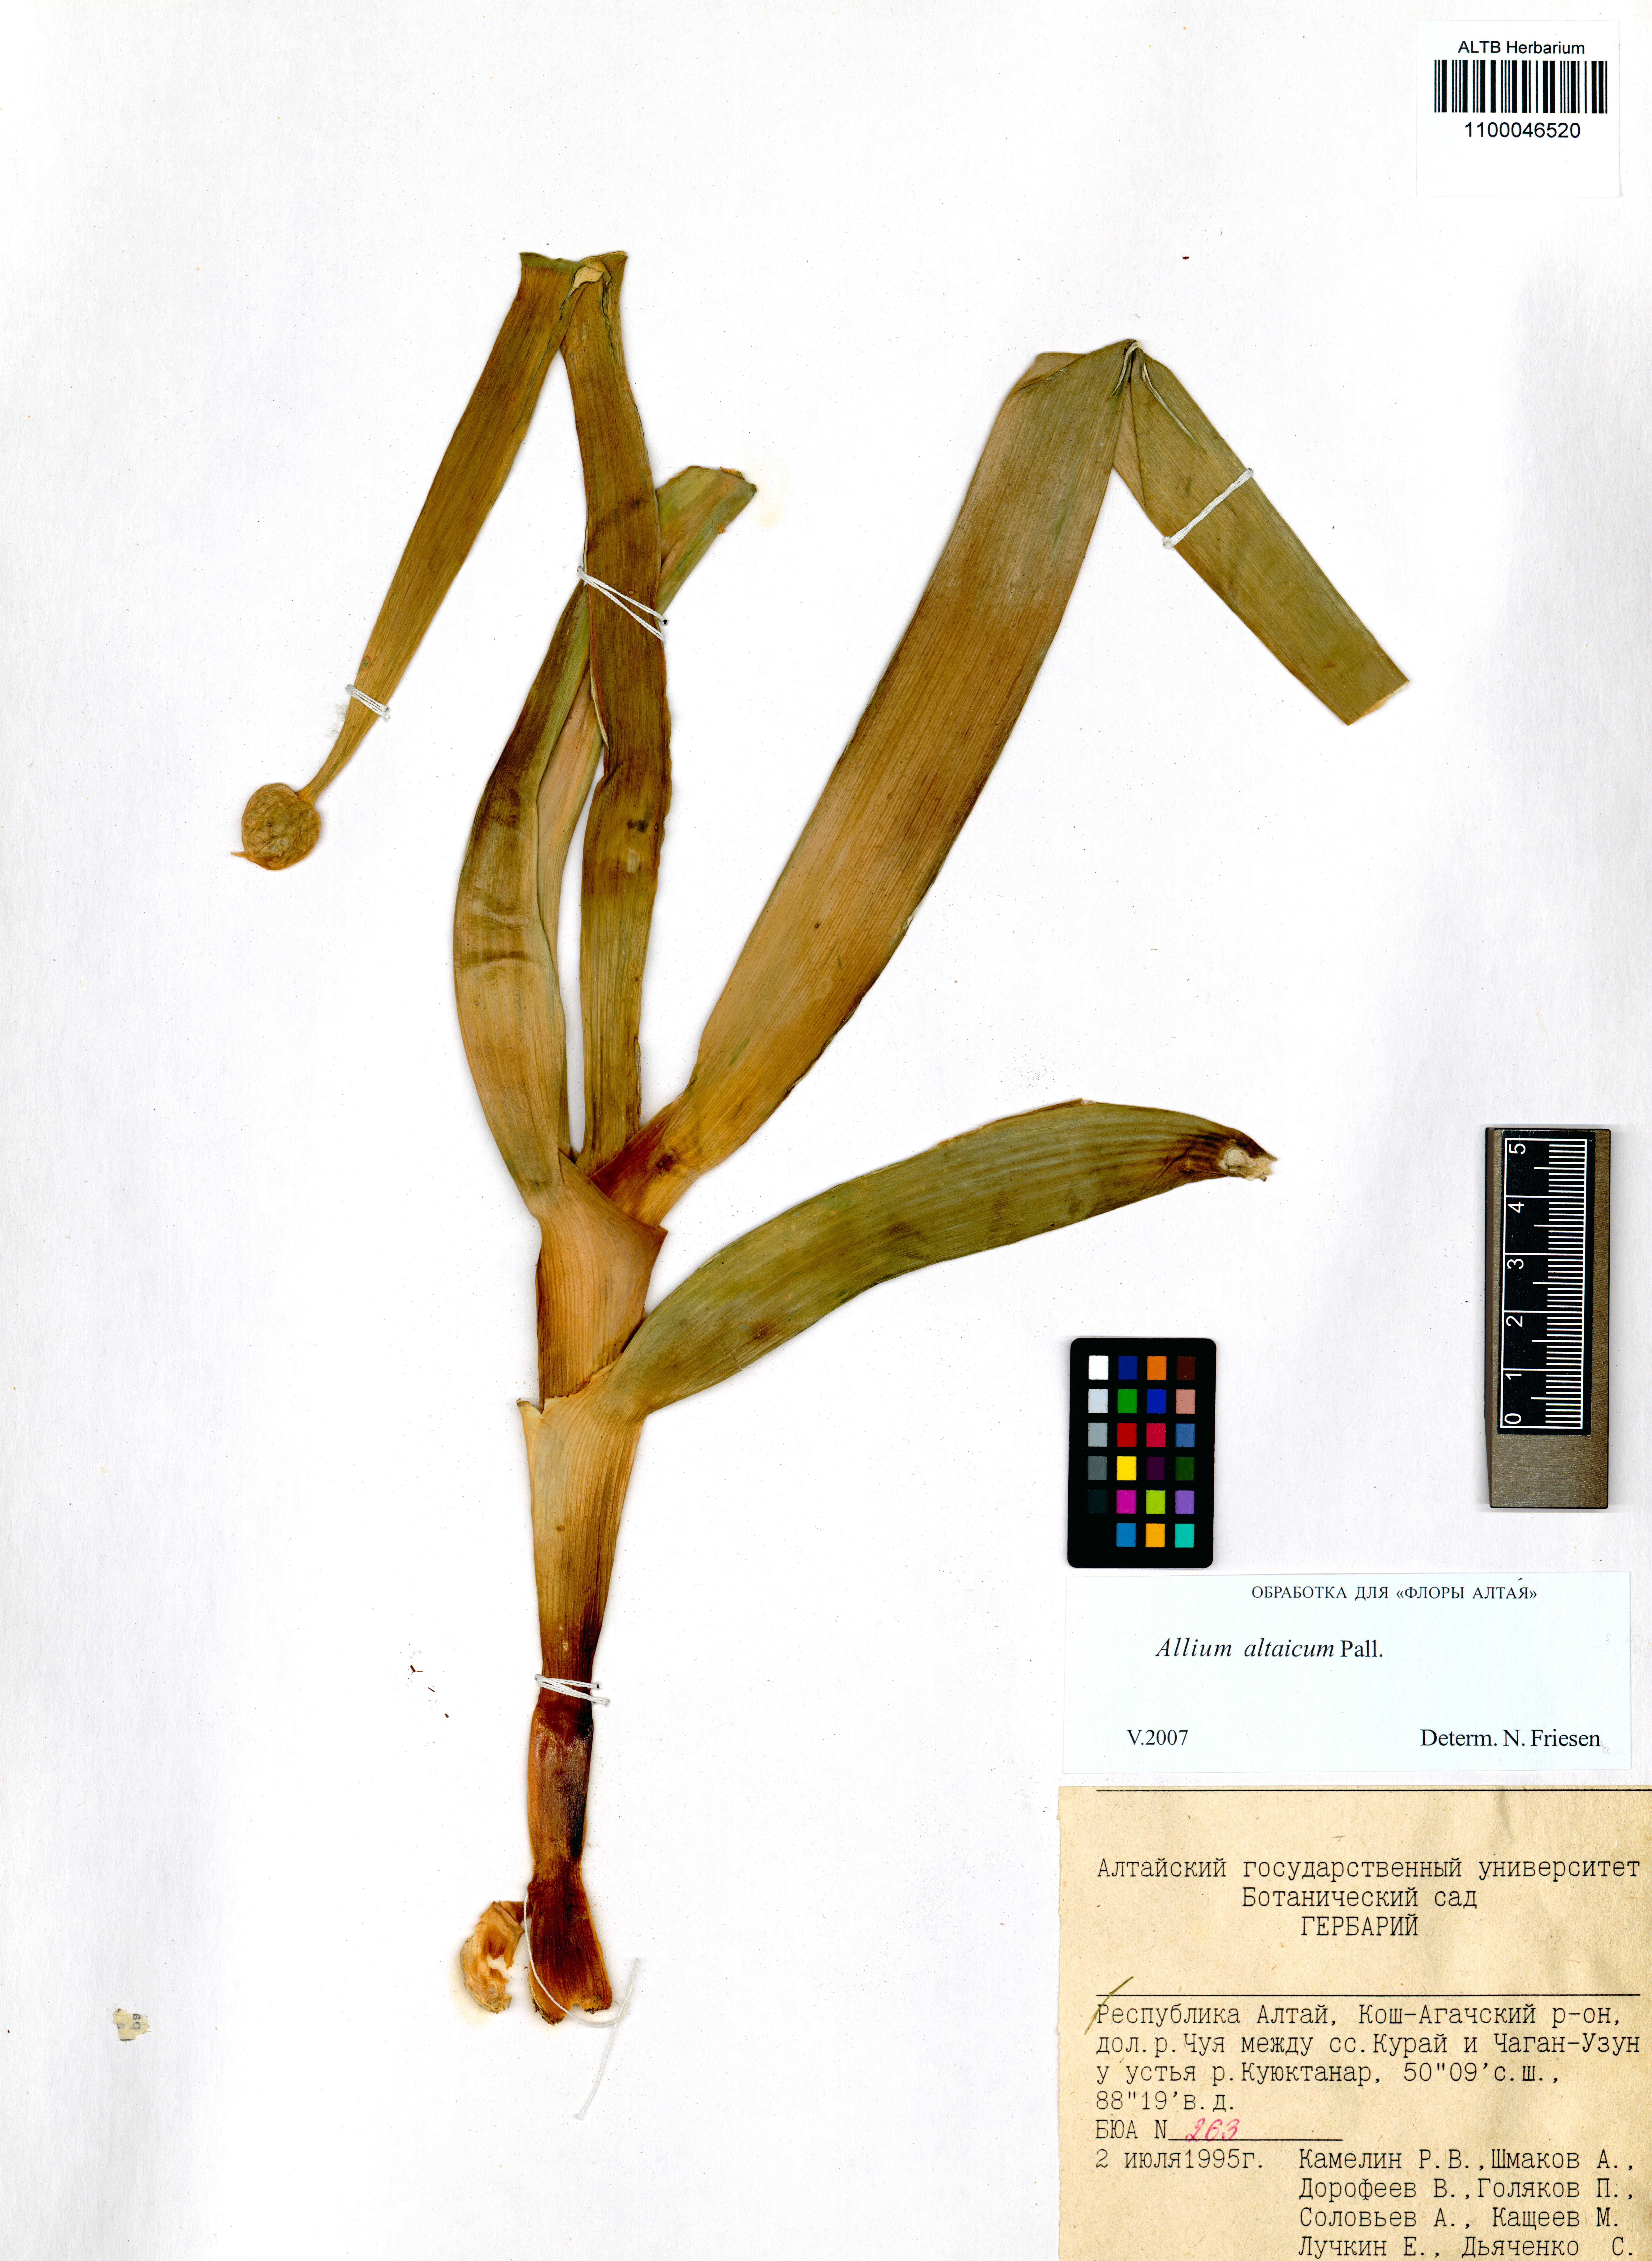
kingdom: Plantae
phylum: Tracheophyta
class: Liliopsida
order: Asparagales
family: Amaryllidaceae
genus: Allium
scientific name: Allium altaicum
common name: Altai onion
